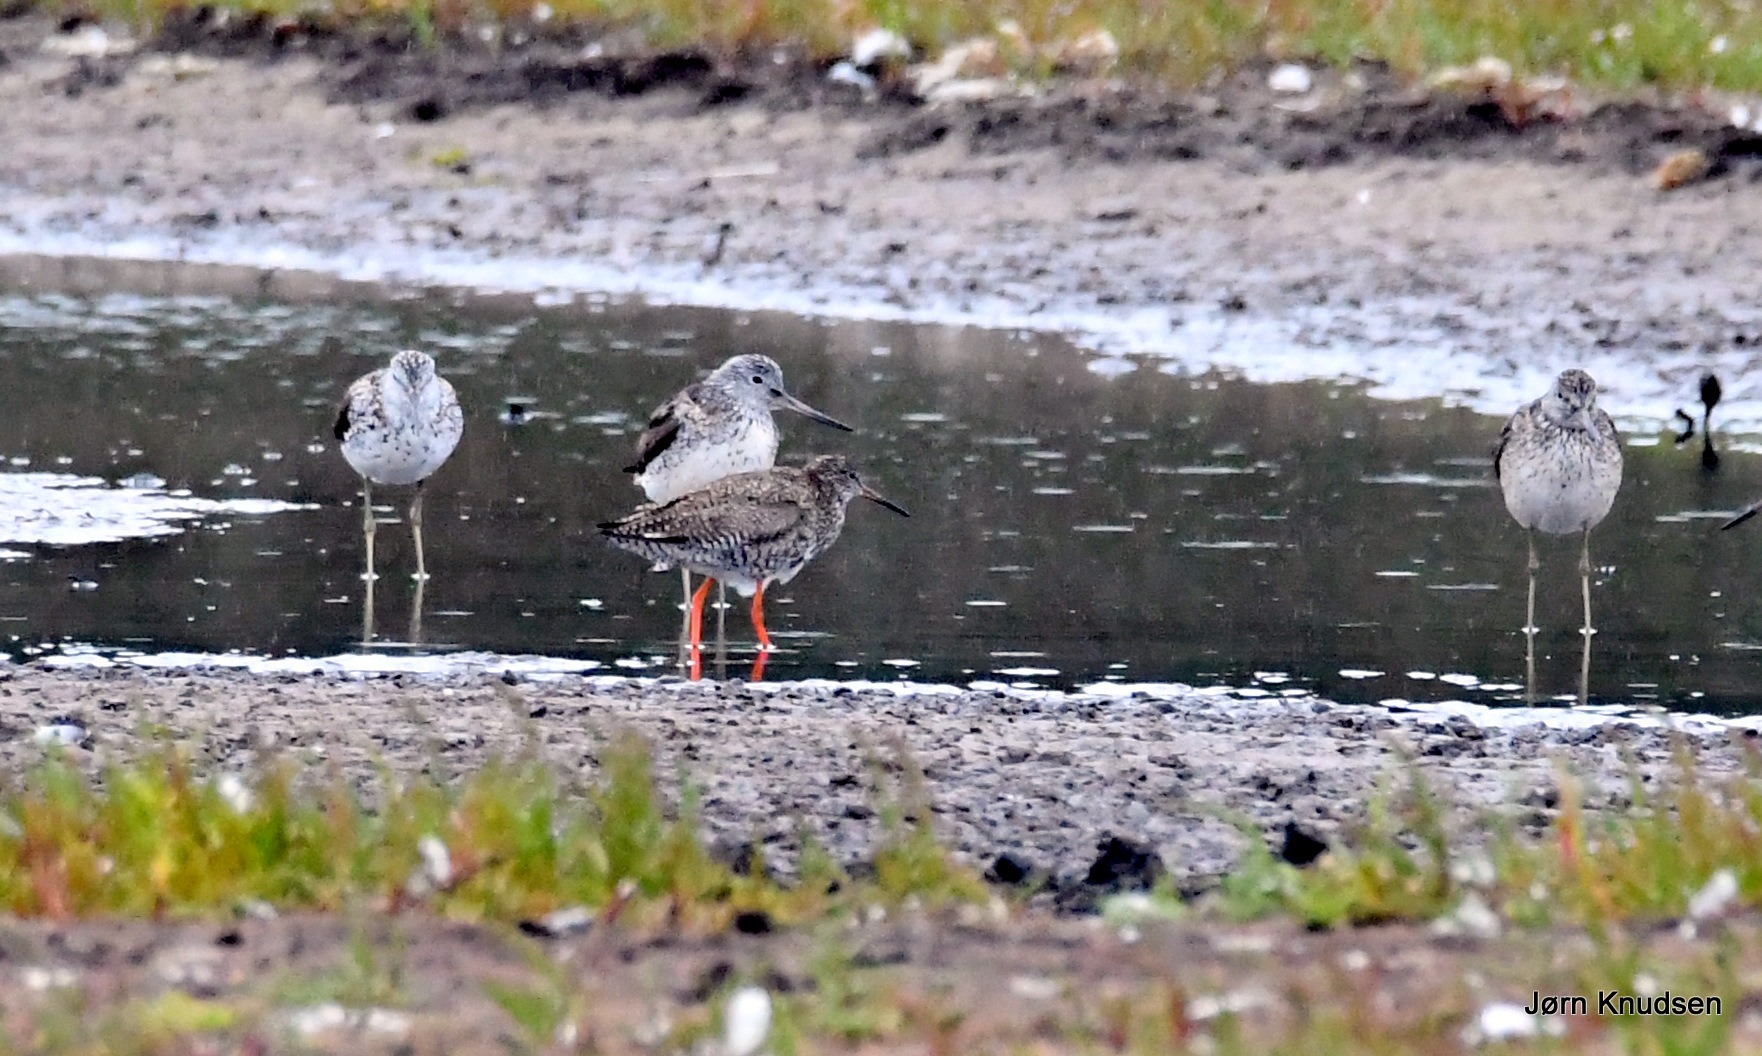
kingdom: Animalia
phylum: Chordata
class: Aves
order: Charadriiformes
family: Scolopacidae
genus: Tringa
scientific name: Tringa totanus
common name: Rødben
